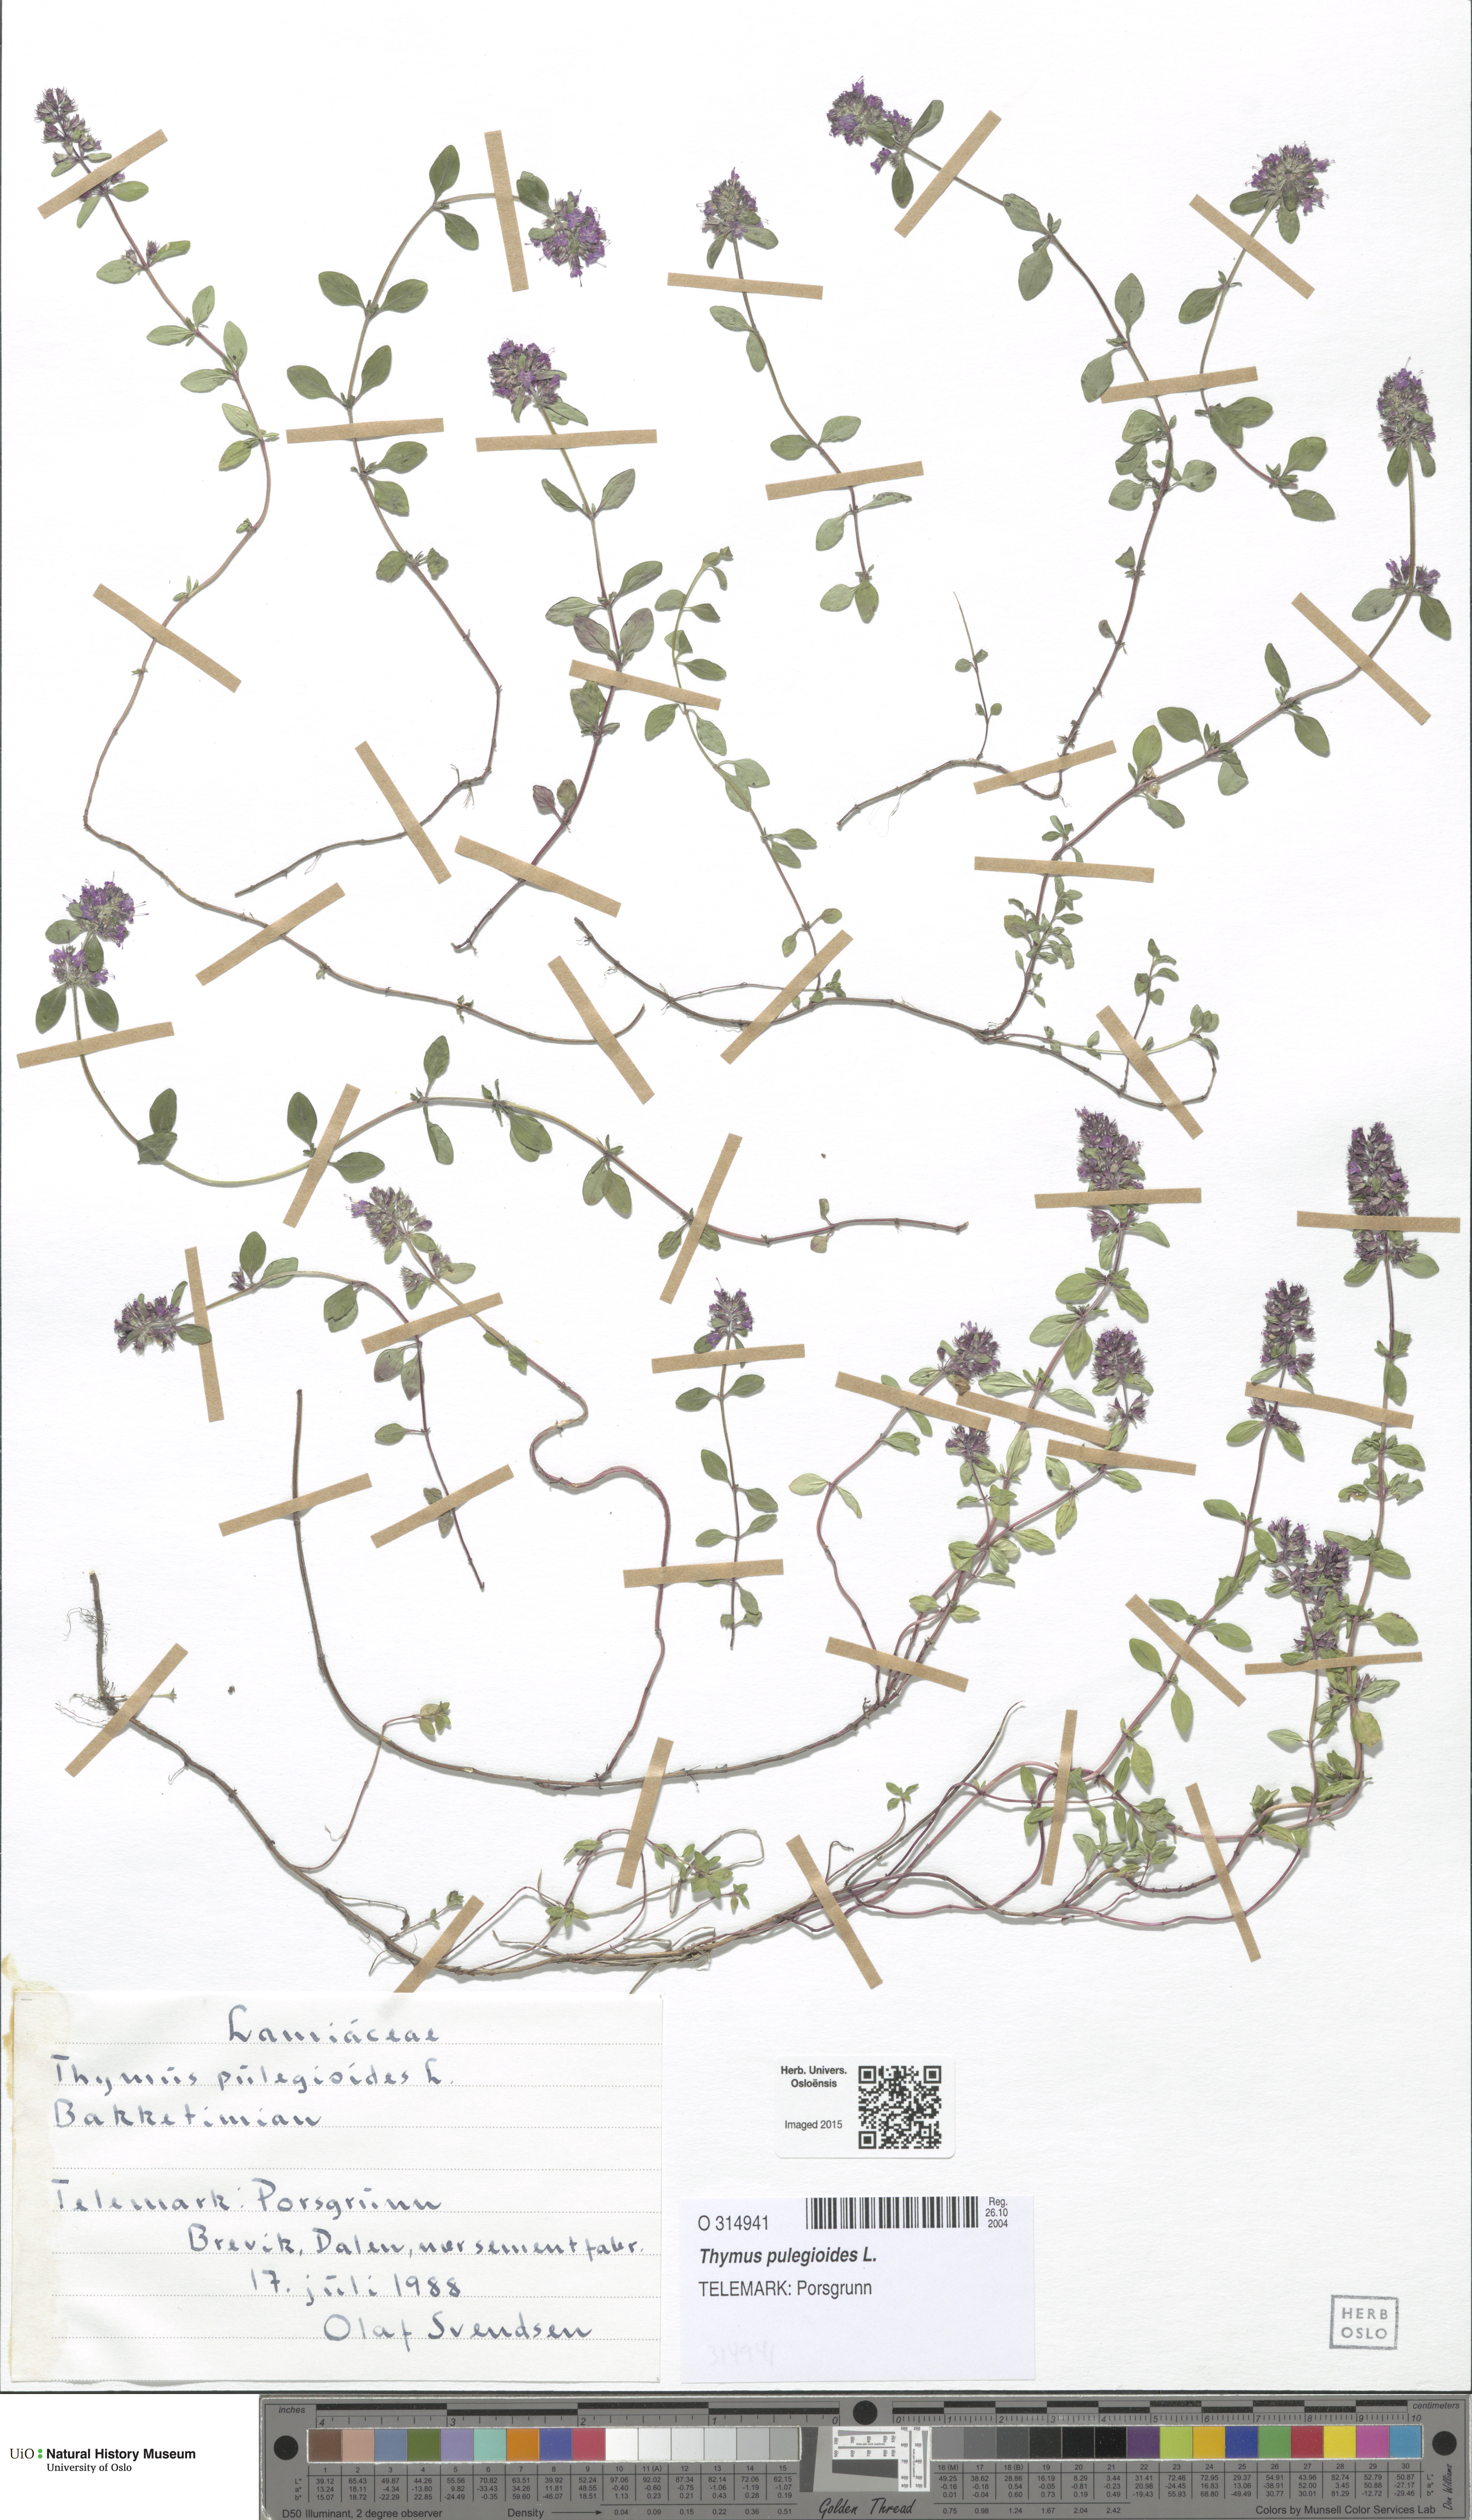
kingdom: Plantae
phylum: Tracheophyta
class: Magnoliopsida
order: Lamiales
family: Lamiaceae
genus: Thymus
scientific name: Thymus pulegioides
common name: Large thyme
